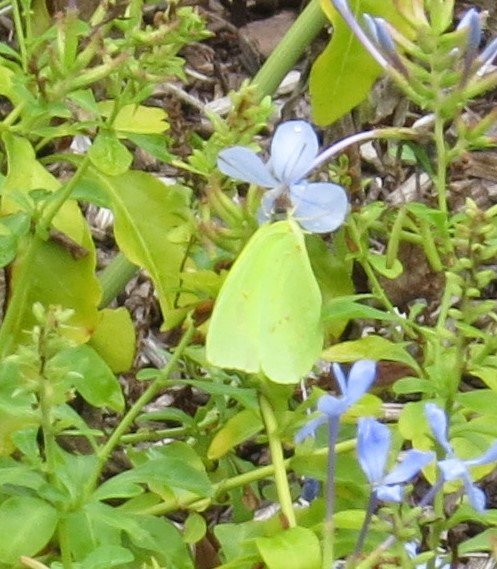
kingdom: Animalia
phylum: Arthropoda
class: Insecta
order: Lepidoptera
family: Pieridae
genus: Phoebis
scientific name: Phoebis sennae
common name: Cloudless Sulphur
